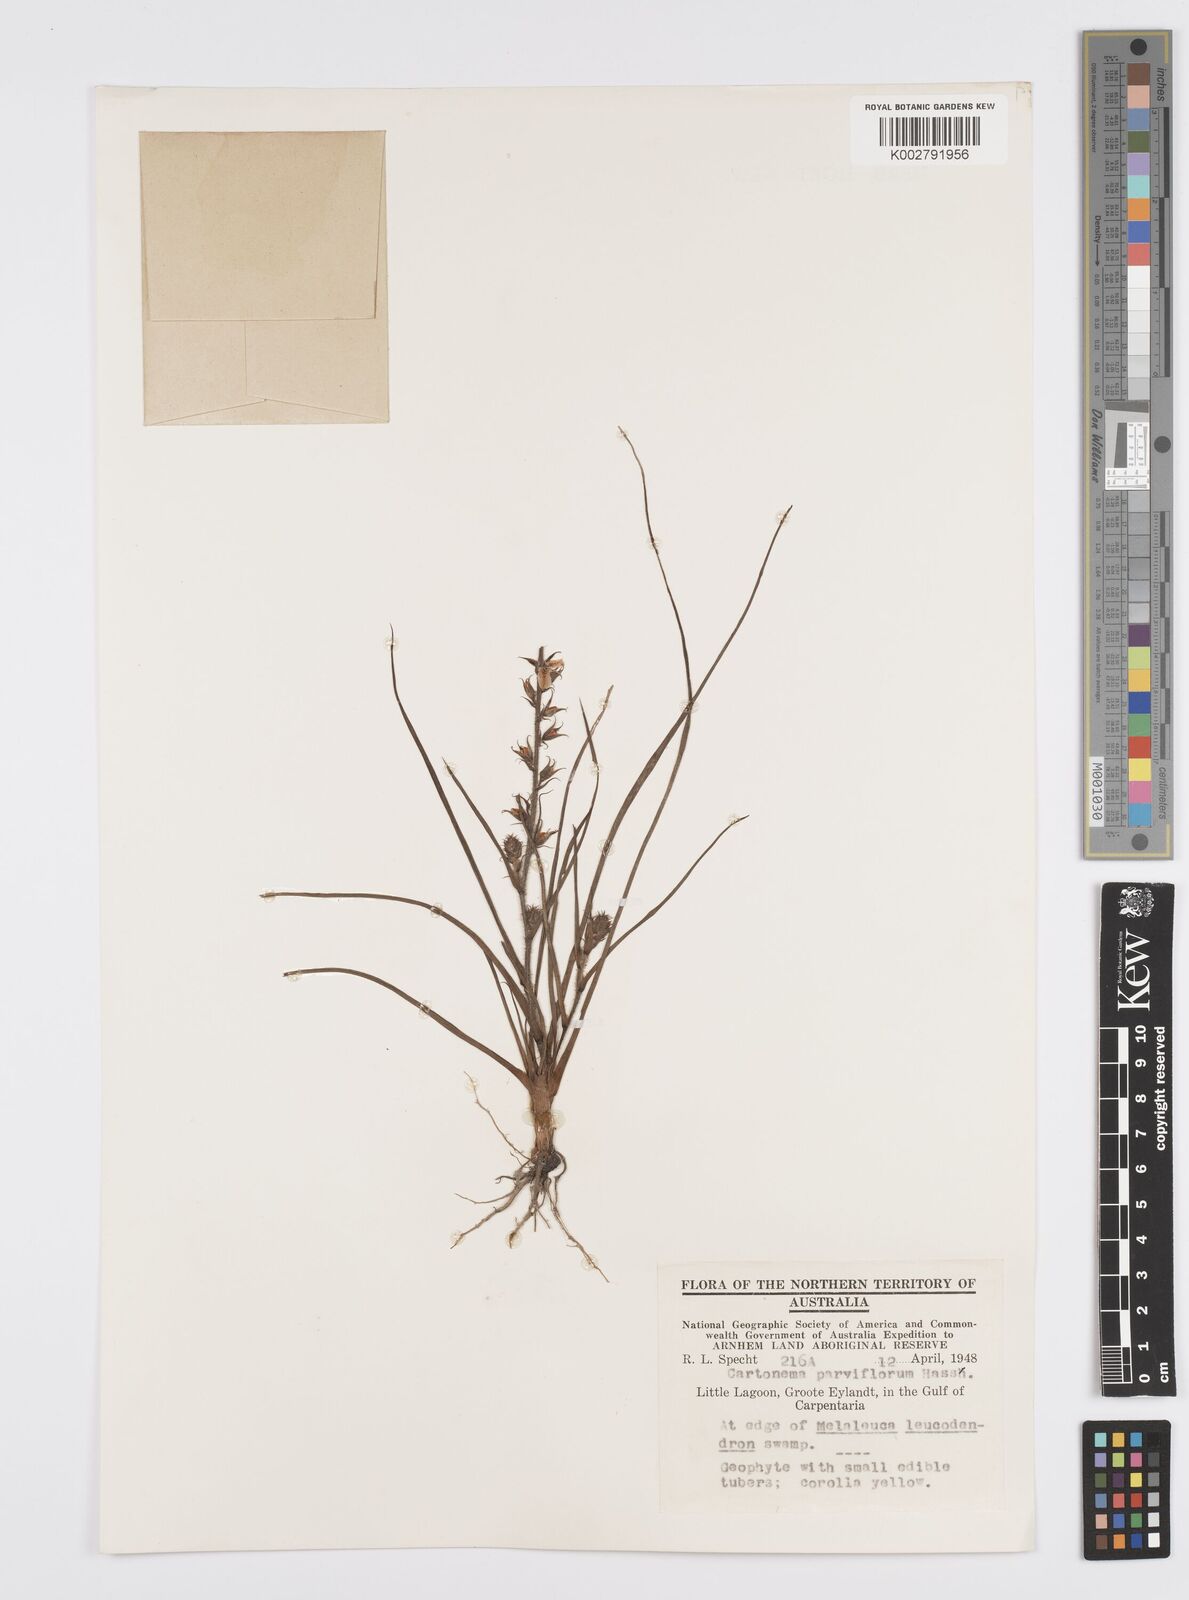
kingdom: Plantae
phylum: Tracheophyta
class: Liliopsida
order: Commelinales
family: Commelinaceae
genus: Cartonema
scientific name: Cartonema parviflorum
